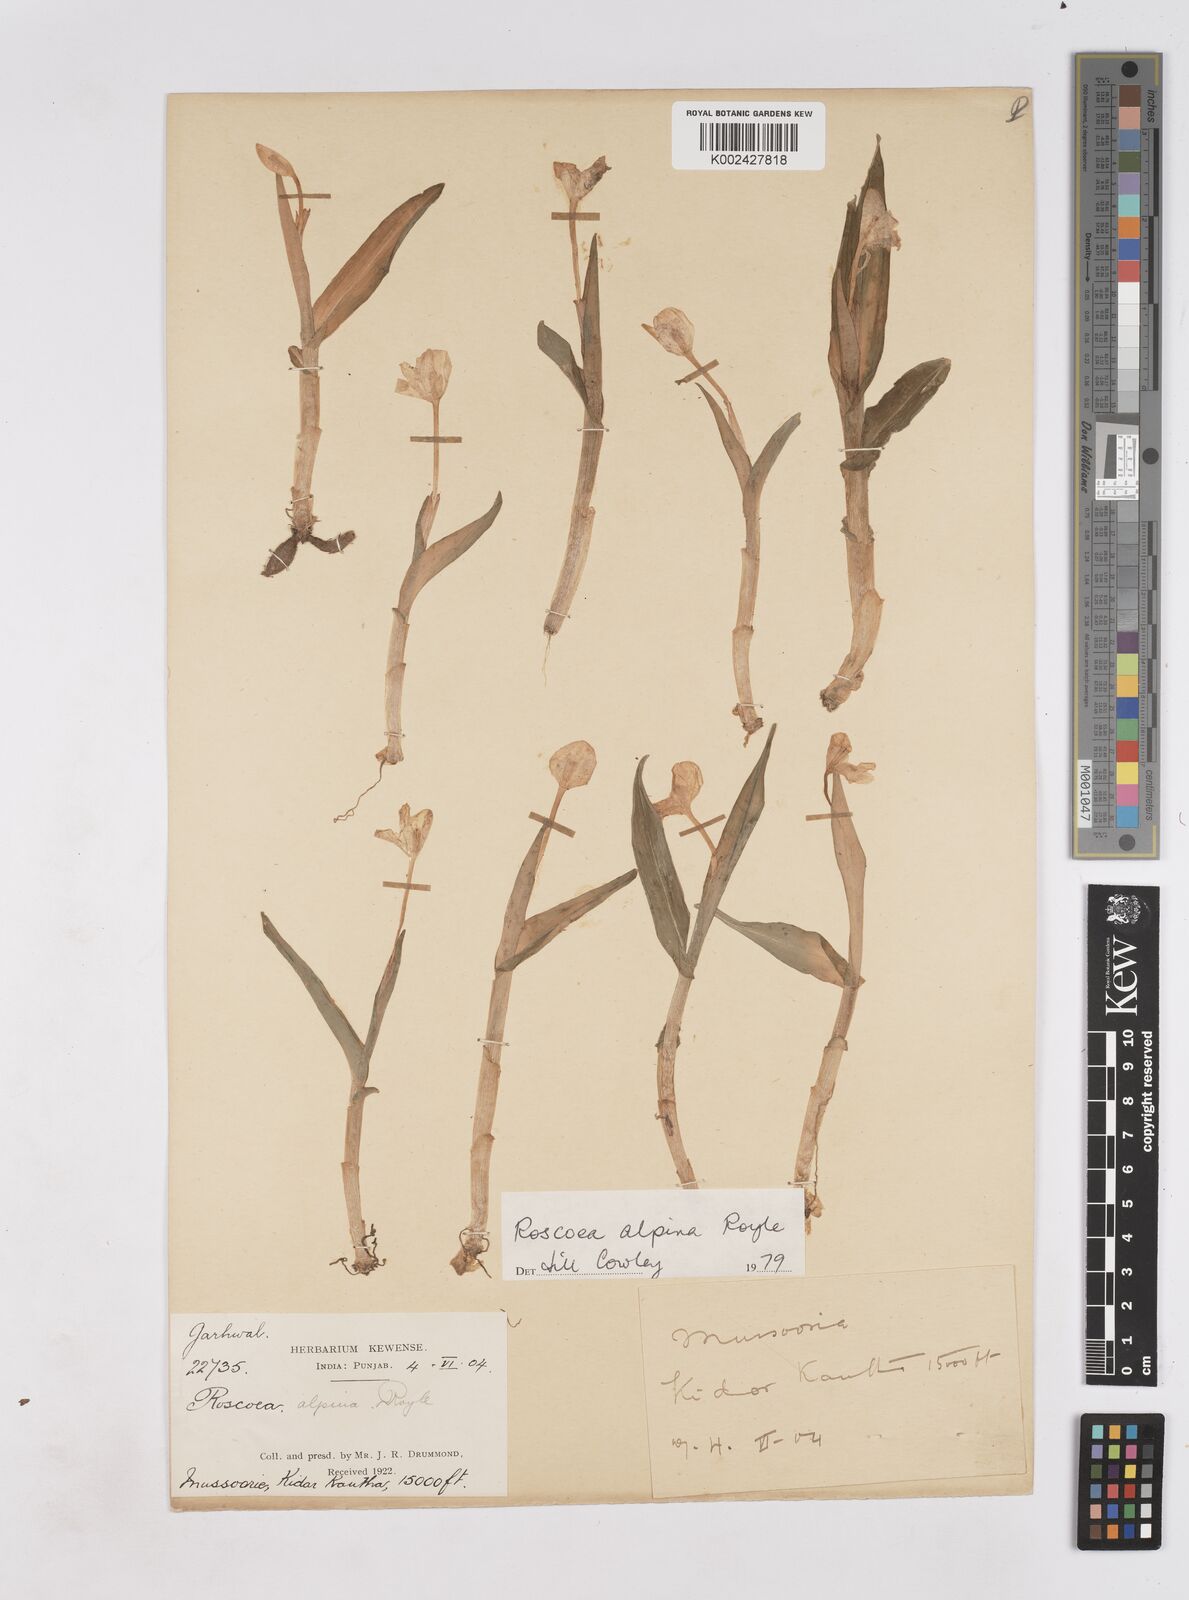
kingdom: Plantae
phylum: Tracheophyta
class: Liliopsida
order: Zingiberales
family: Zingiberaceae
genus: Roscoea
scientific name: Roscoea alpina
